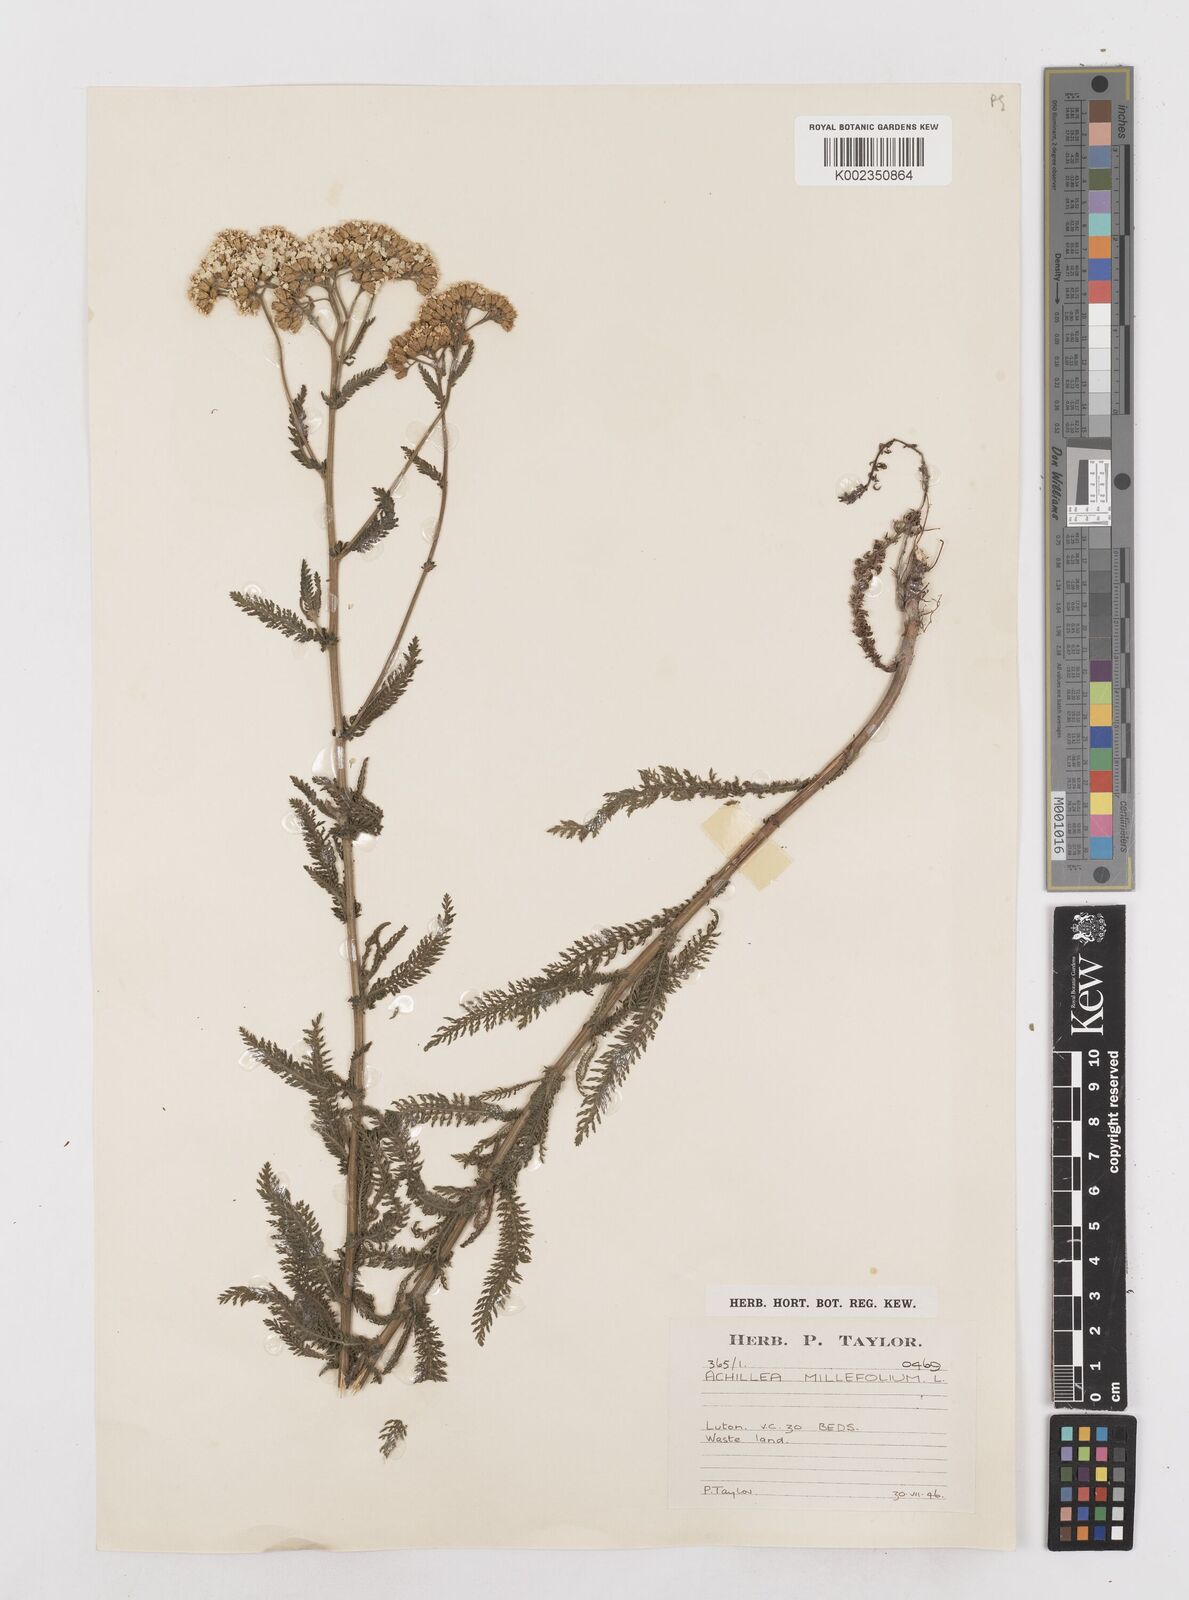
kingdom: Plantae
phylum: Tracheophyta
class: Magnoliopsida
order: Asterales
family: Asteraceae
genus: Achillea
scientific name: Achillea millefolium
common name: Yarrow
